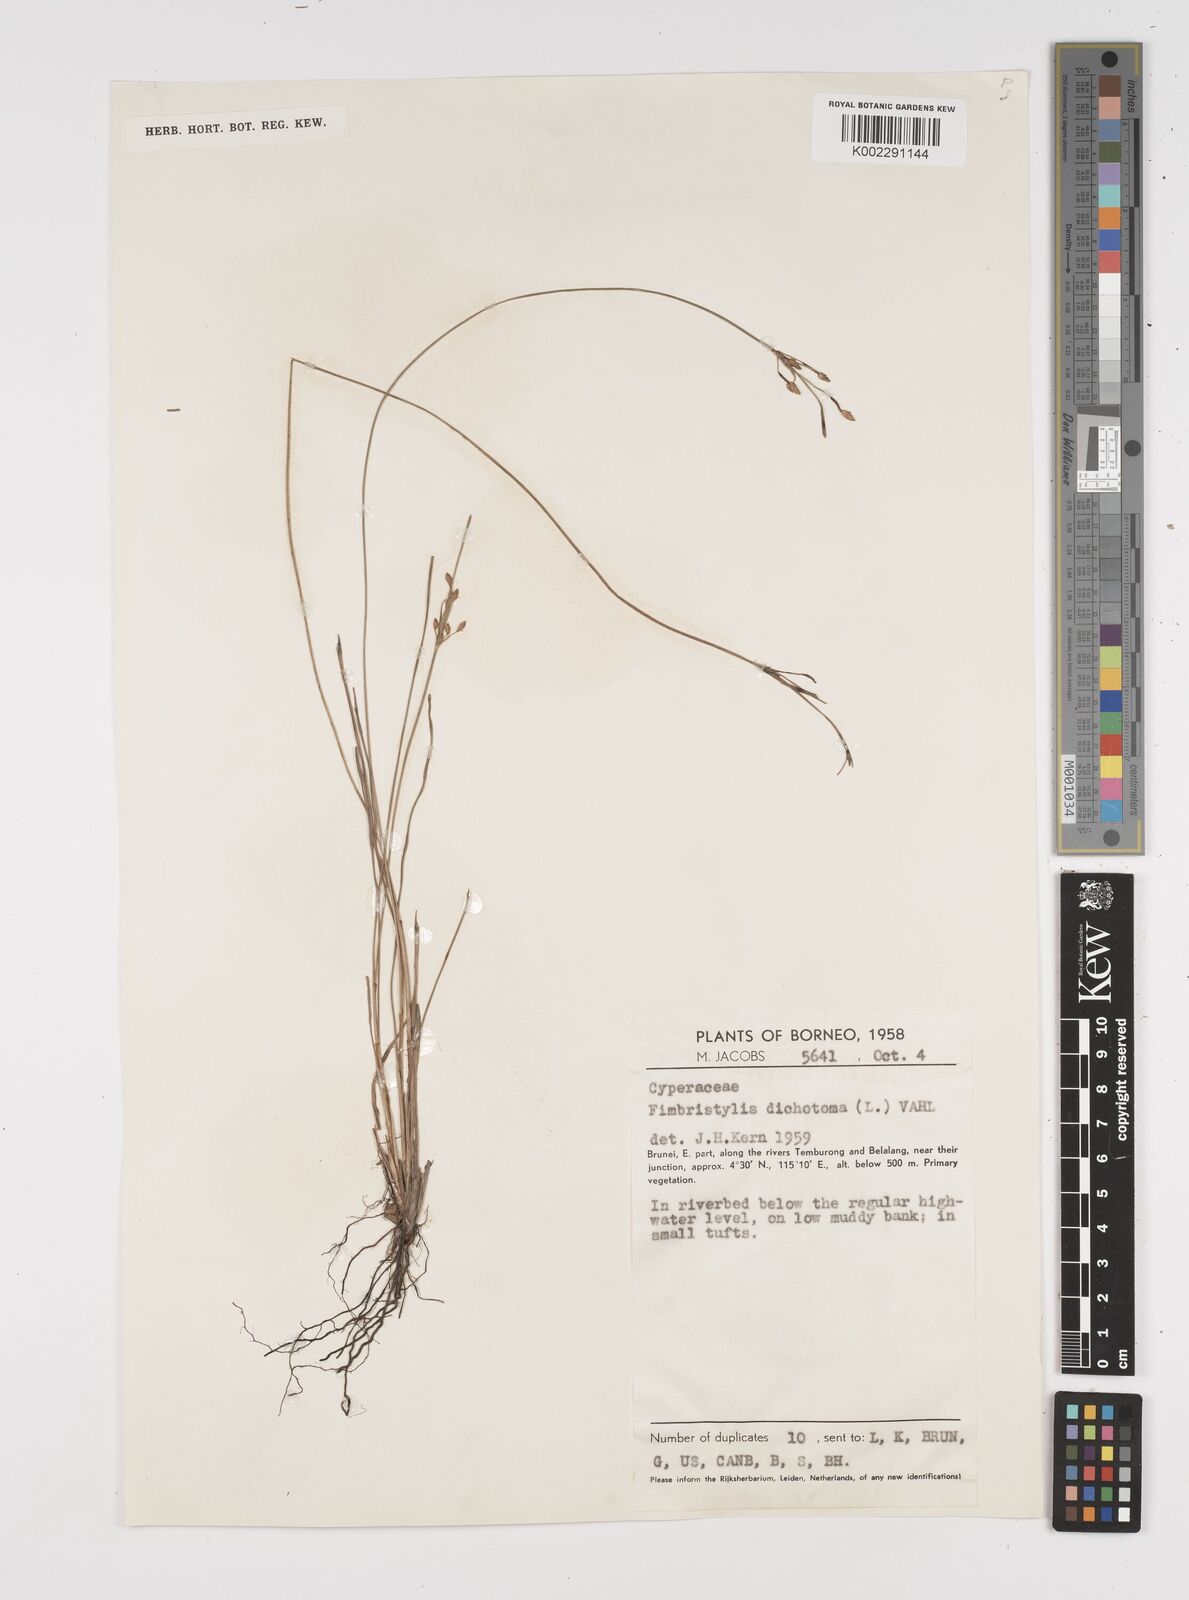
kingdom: Plantae
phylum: Tracheophyta
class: Liliopsida
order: Poales
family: Cyperaceae
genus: Fimbristylis
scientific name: Fimbristylis dichotoma
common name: Forked fimbry
